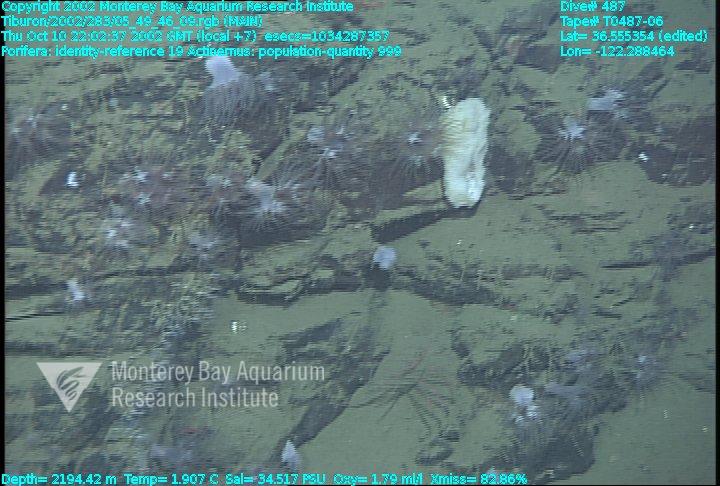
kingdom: Animalia
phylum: Porifera
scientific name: Porifera
